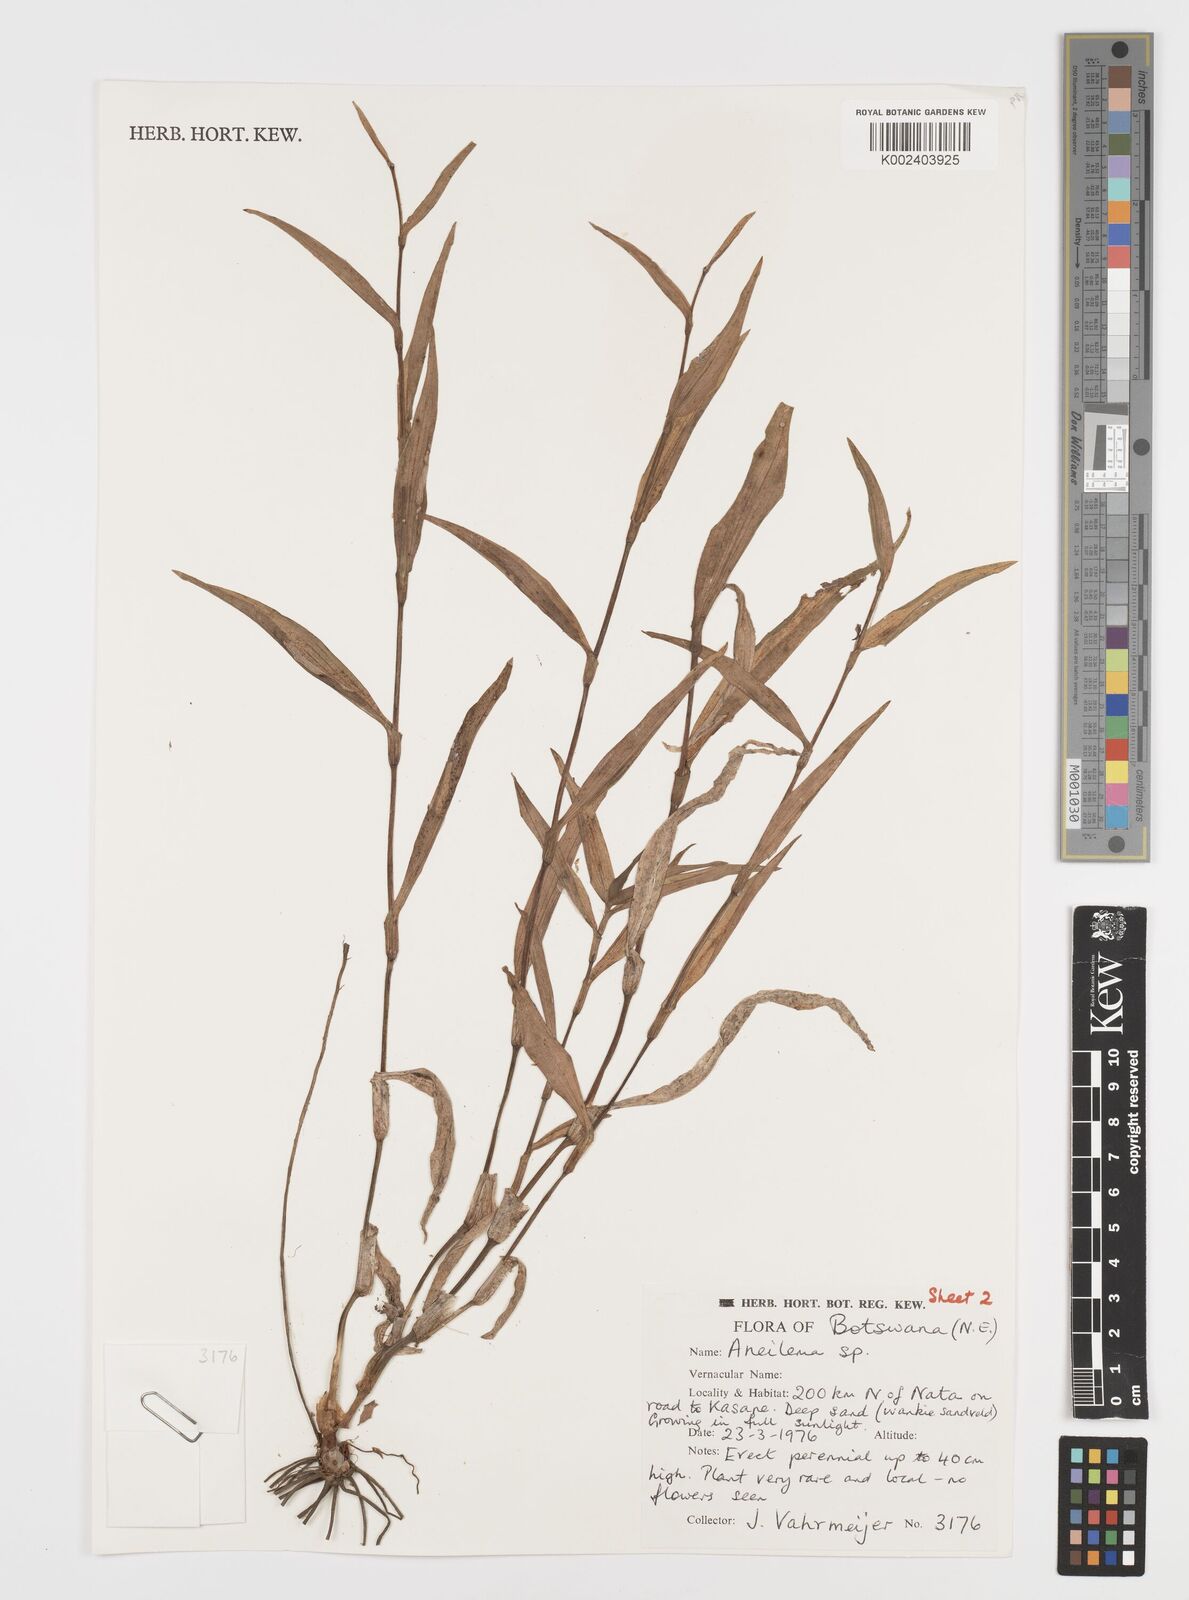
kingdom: Plantae
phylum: Tracheophyta
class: Liliopsida
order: Commelinales
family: Commelinaceae
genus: Aneilema
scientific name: Aneilema hockii
